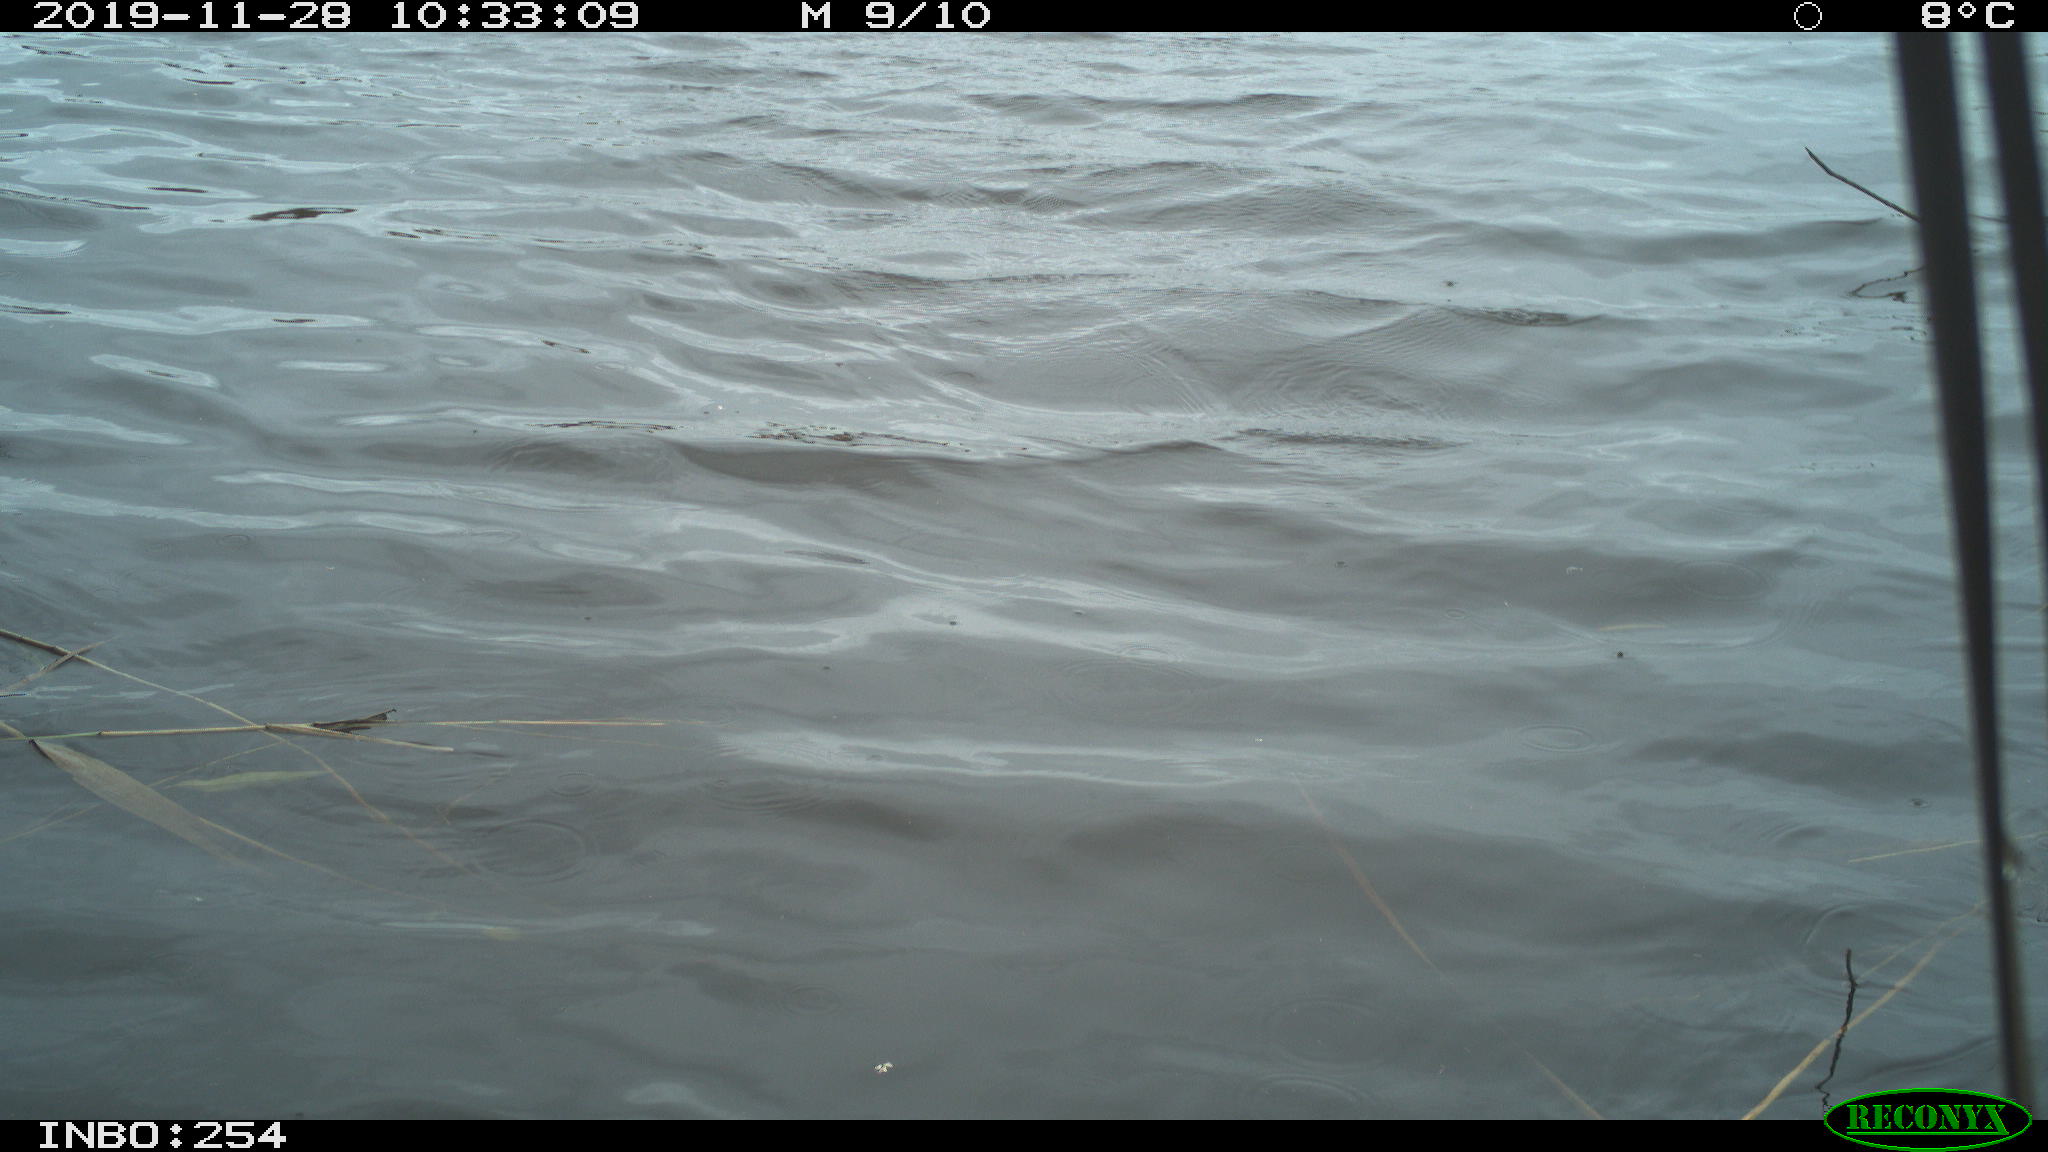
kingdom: Animalia
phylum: Chordata
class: Aves
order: Gruiformes
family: Rallidae
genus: Gallinula
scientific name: Gallinula chloropus
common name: Common moorhen
